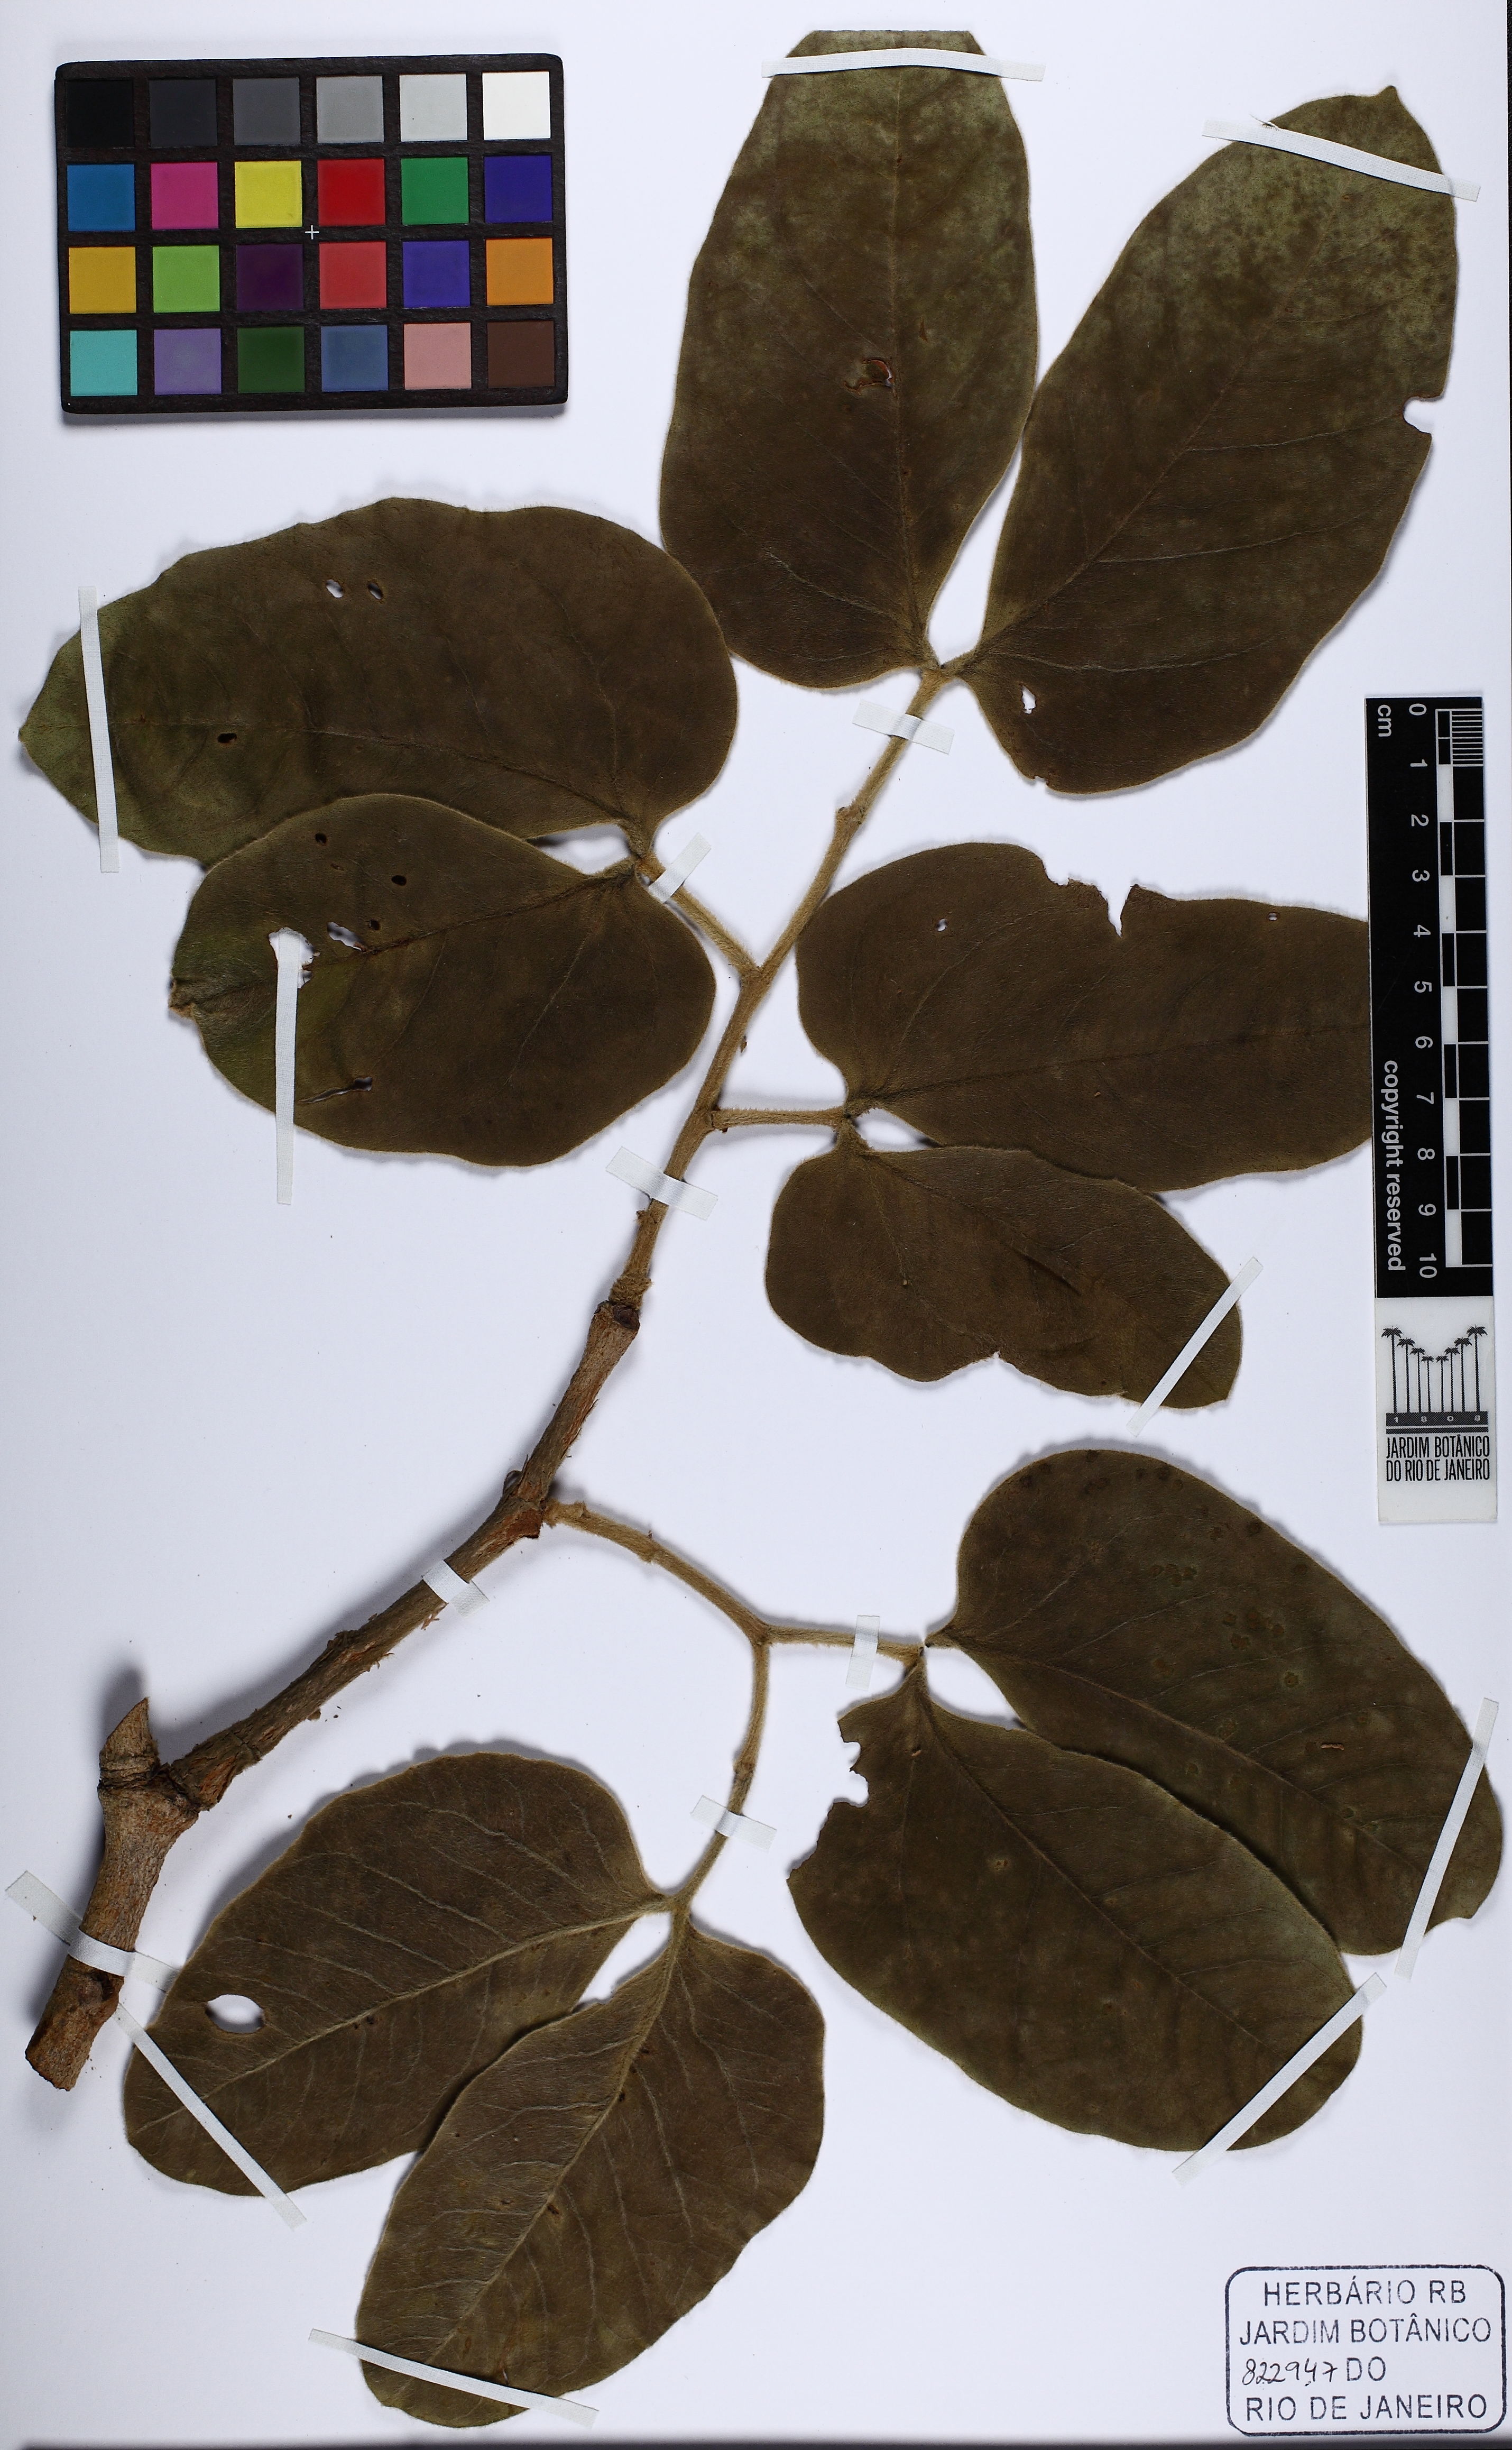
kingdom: Plantae
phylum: Tracheophyta
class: Magnoliopsida
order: Fabales
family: Fabaceae
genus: Hymenaea
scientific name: Hymenaea stigonocarpa
